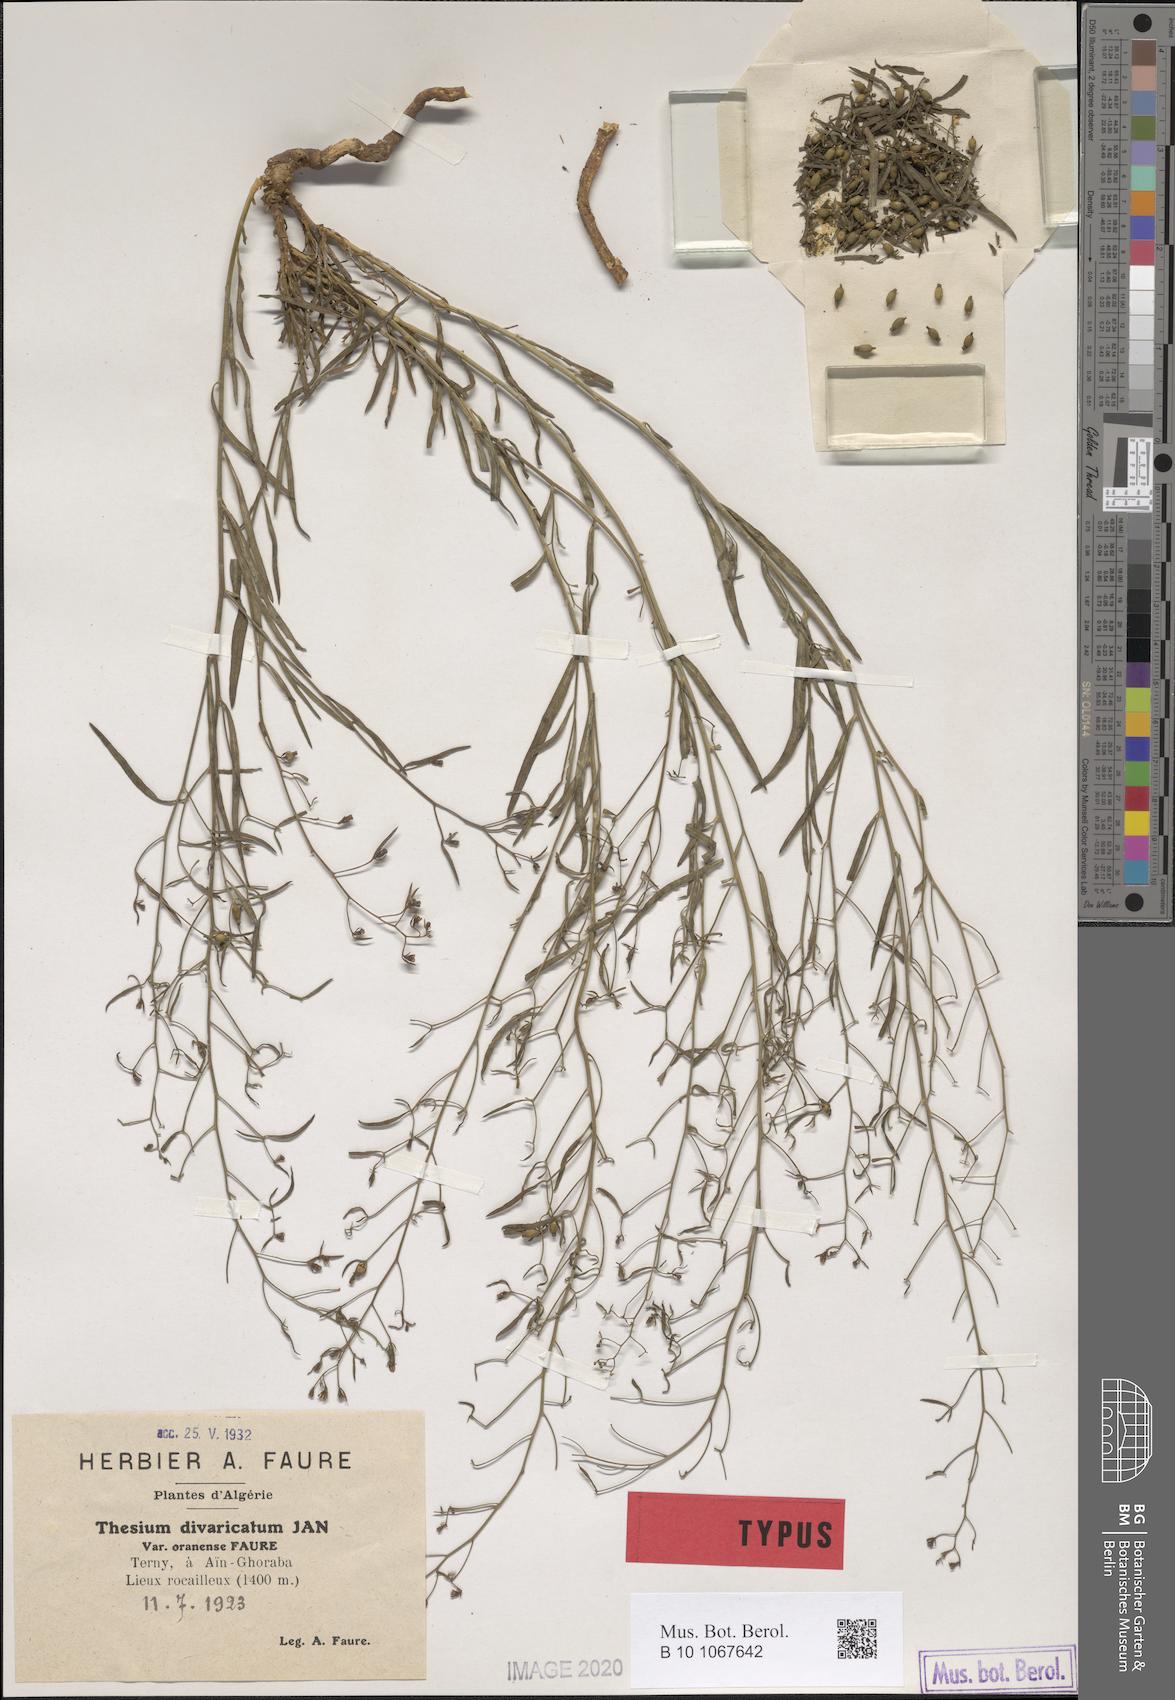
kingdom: Plantae
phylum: Tracheophyta
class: Magnoliopsida
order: Santalales
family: Thesiaceae
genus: Thesium
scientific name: Thesium divaricatum
